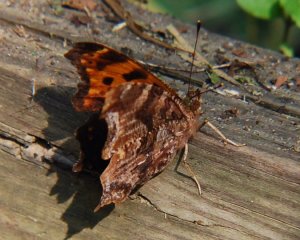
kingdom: Animalia
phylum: Arthropoda
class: Insecta
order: Lepidoptera
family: Nymphalidae
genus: Polygonia
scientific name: Polygonia comma
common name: Eastern Comma
